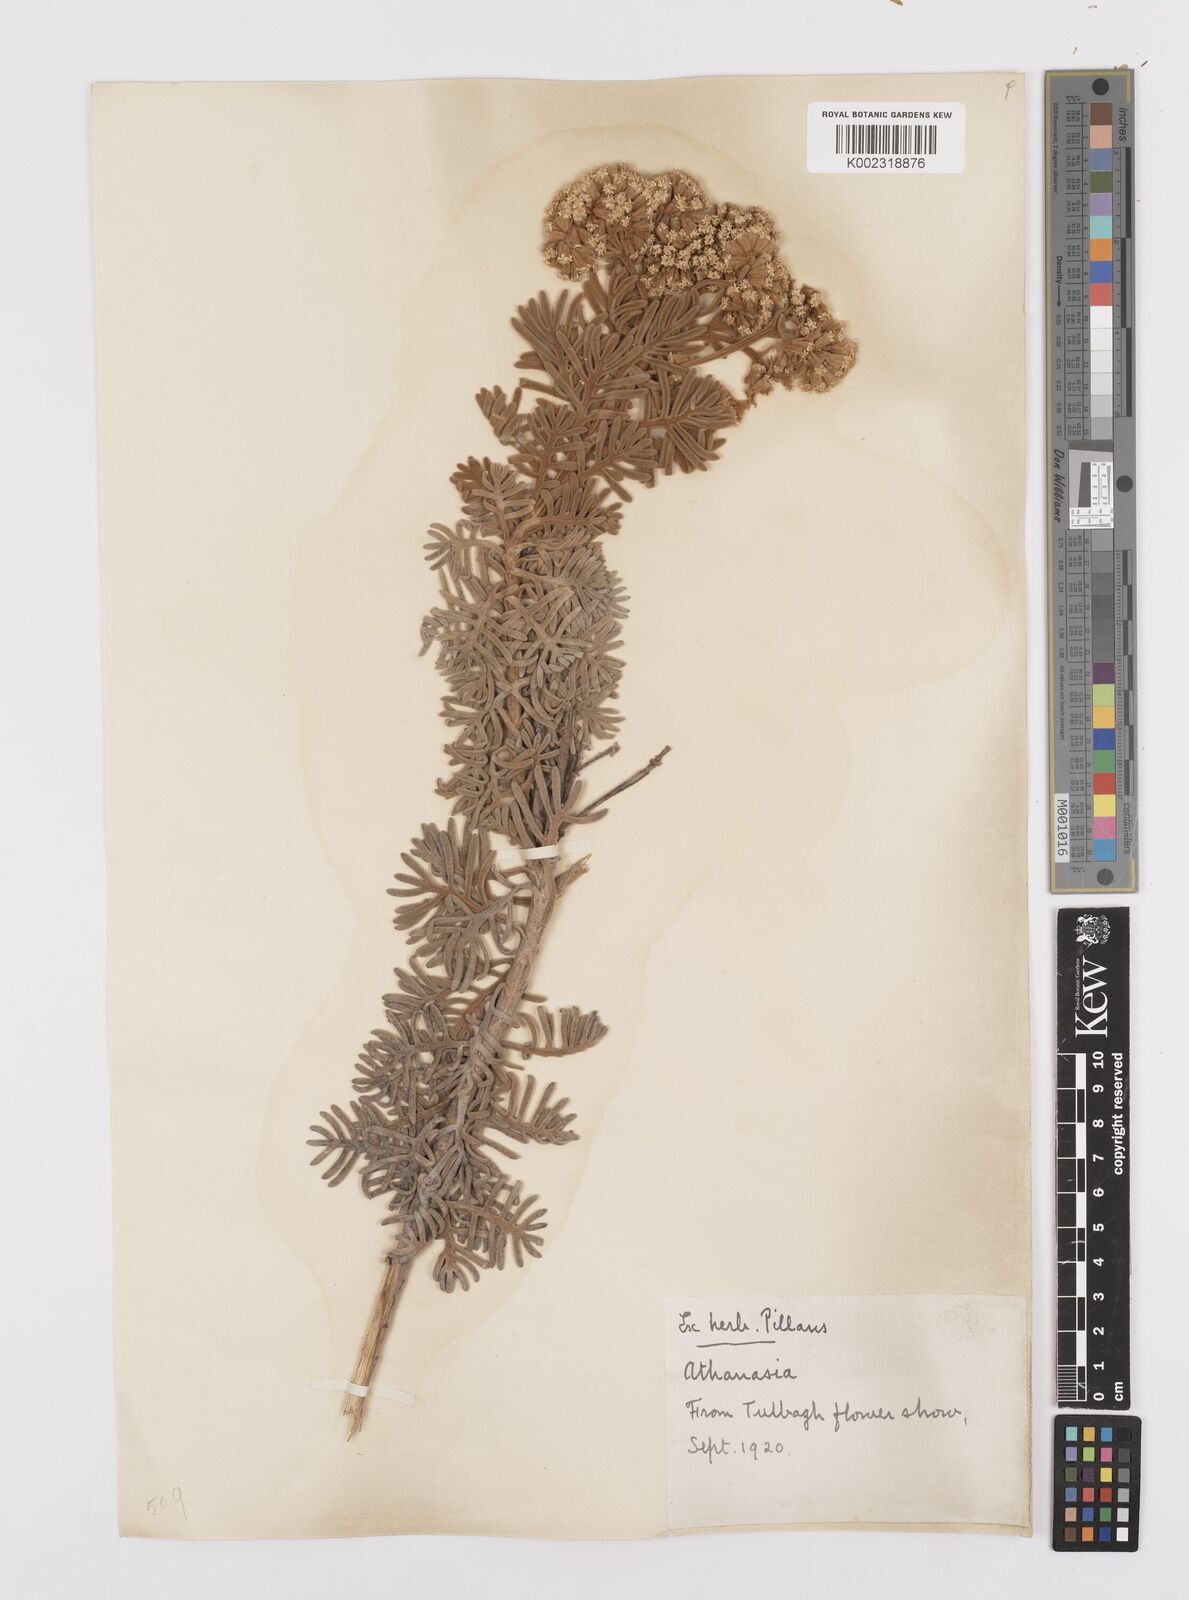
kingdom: Plantae
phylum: Tracheophyta
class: Magnoliopsida
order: Asterales
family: Asteraceae
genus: Hymenolepis
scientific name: Hymenolepis speciosa
